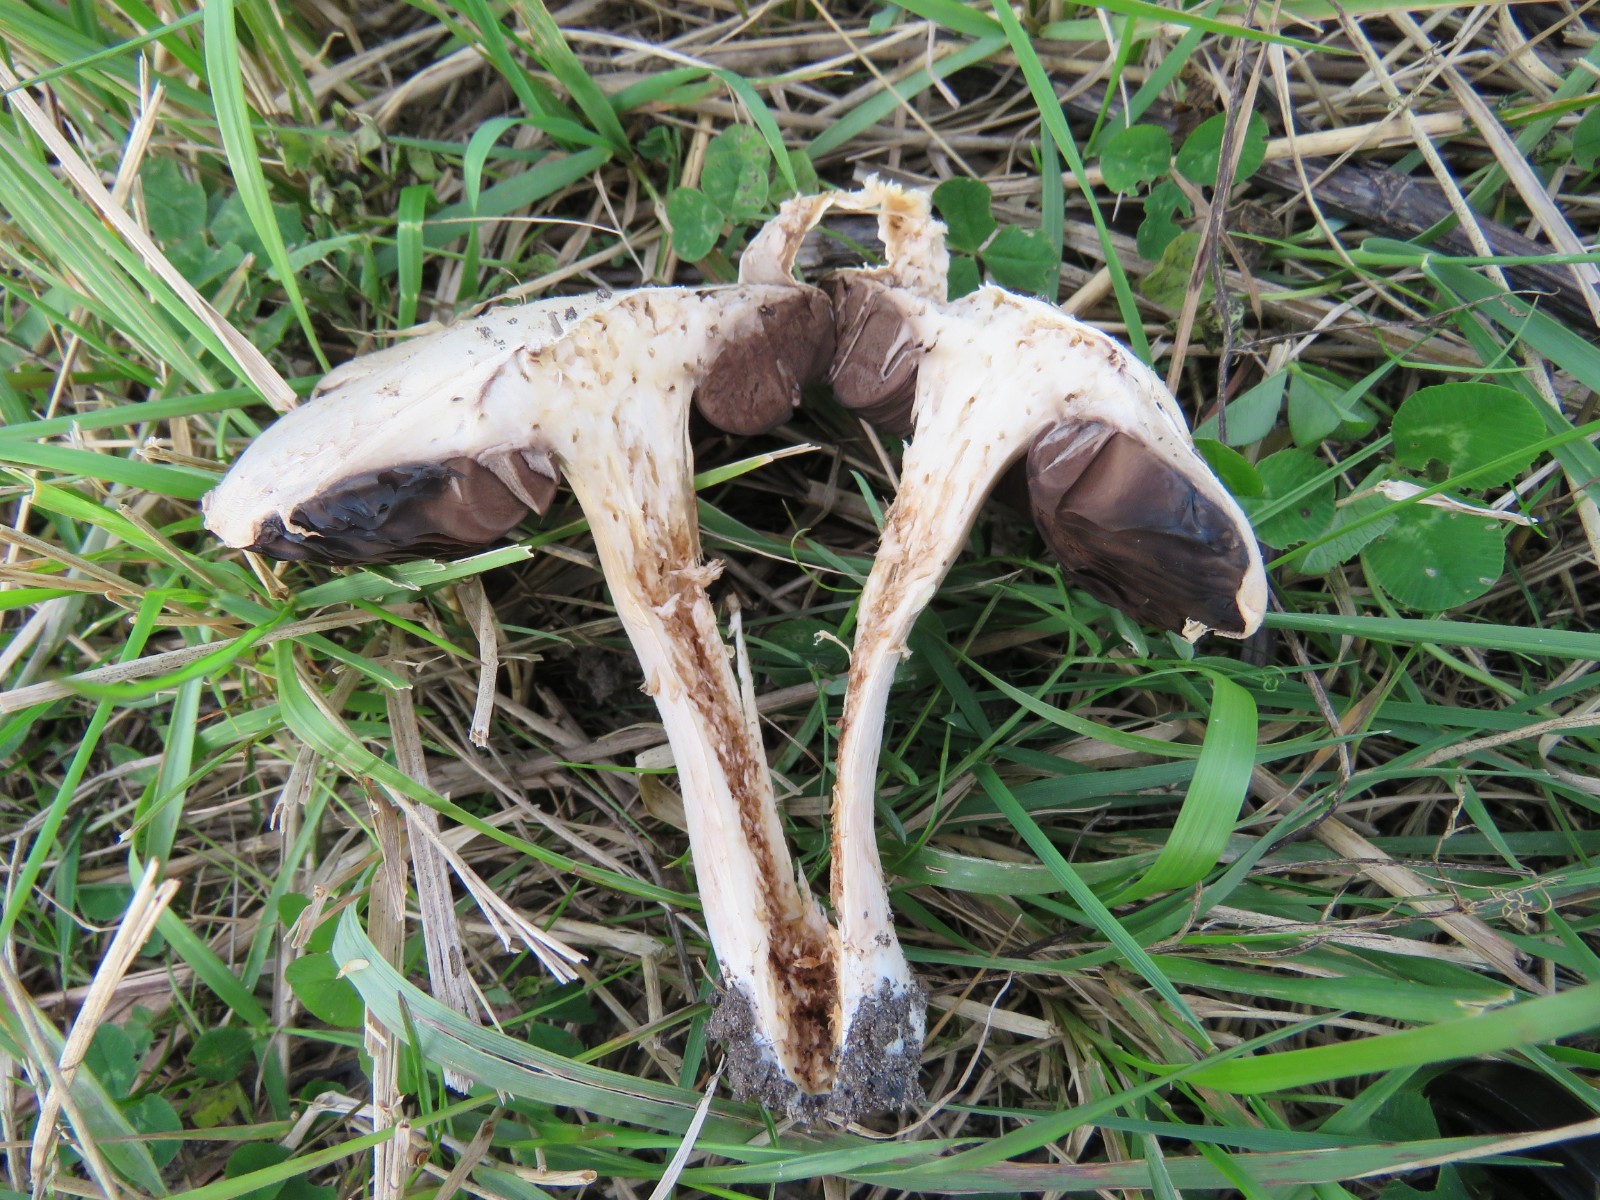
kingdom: Fungi
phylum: Basidiomycota
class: Agaricomycetes
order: Agaricales
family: Agaricaceae
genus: Agaricus
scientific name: Agaricus campestris
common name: mark-champignon
